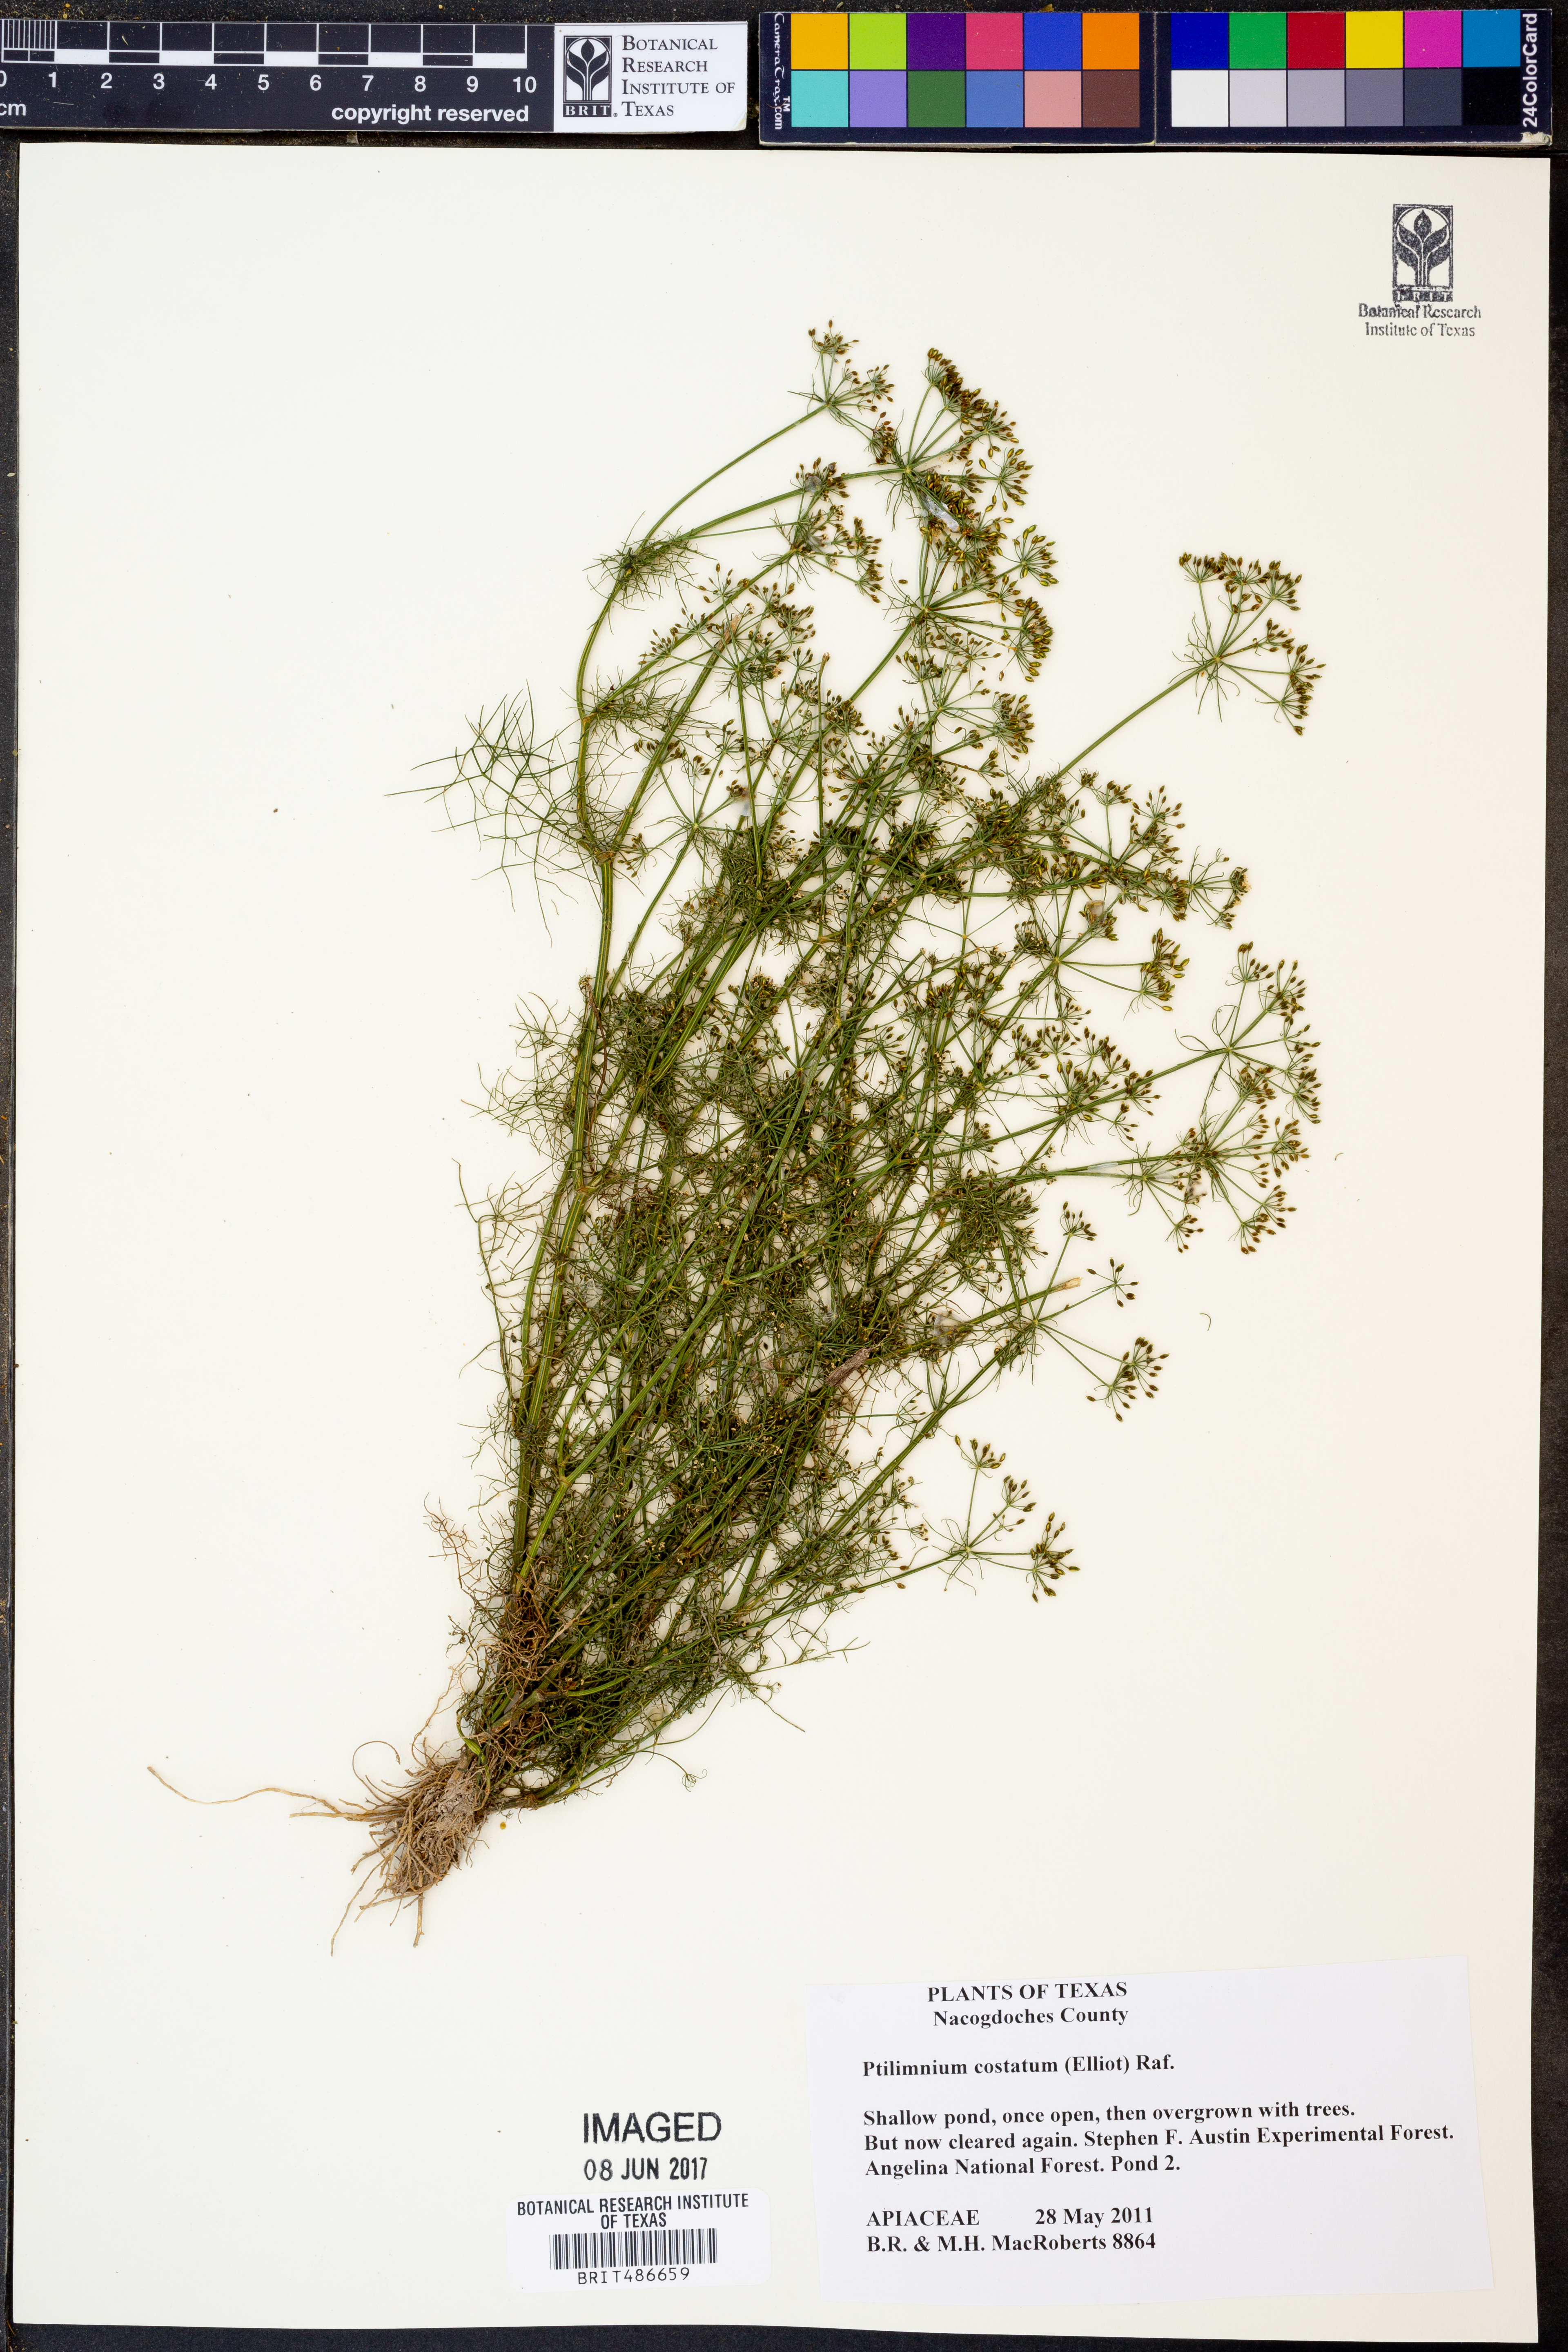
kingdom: Plantae
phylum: Tracheophyta
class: Magnoliopsida
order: Apiales
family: Apiaceae
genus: Ptilimnium
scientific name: Ptilimnium costatum
